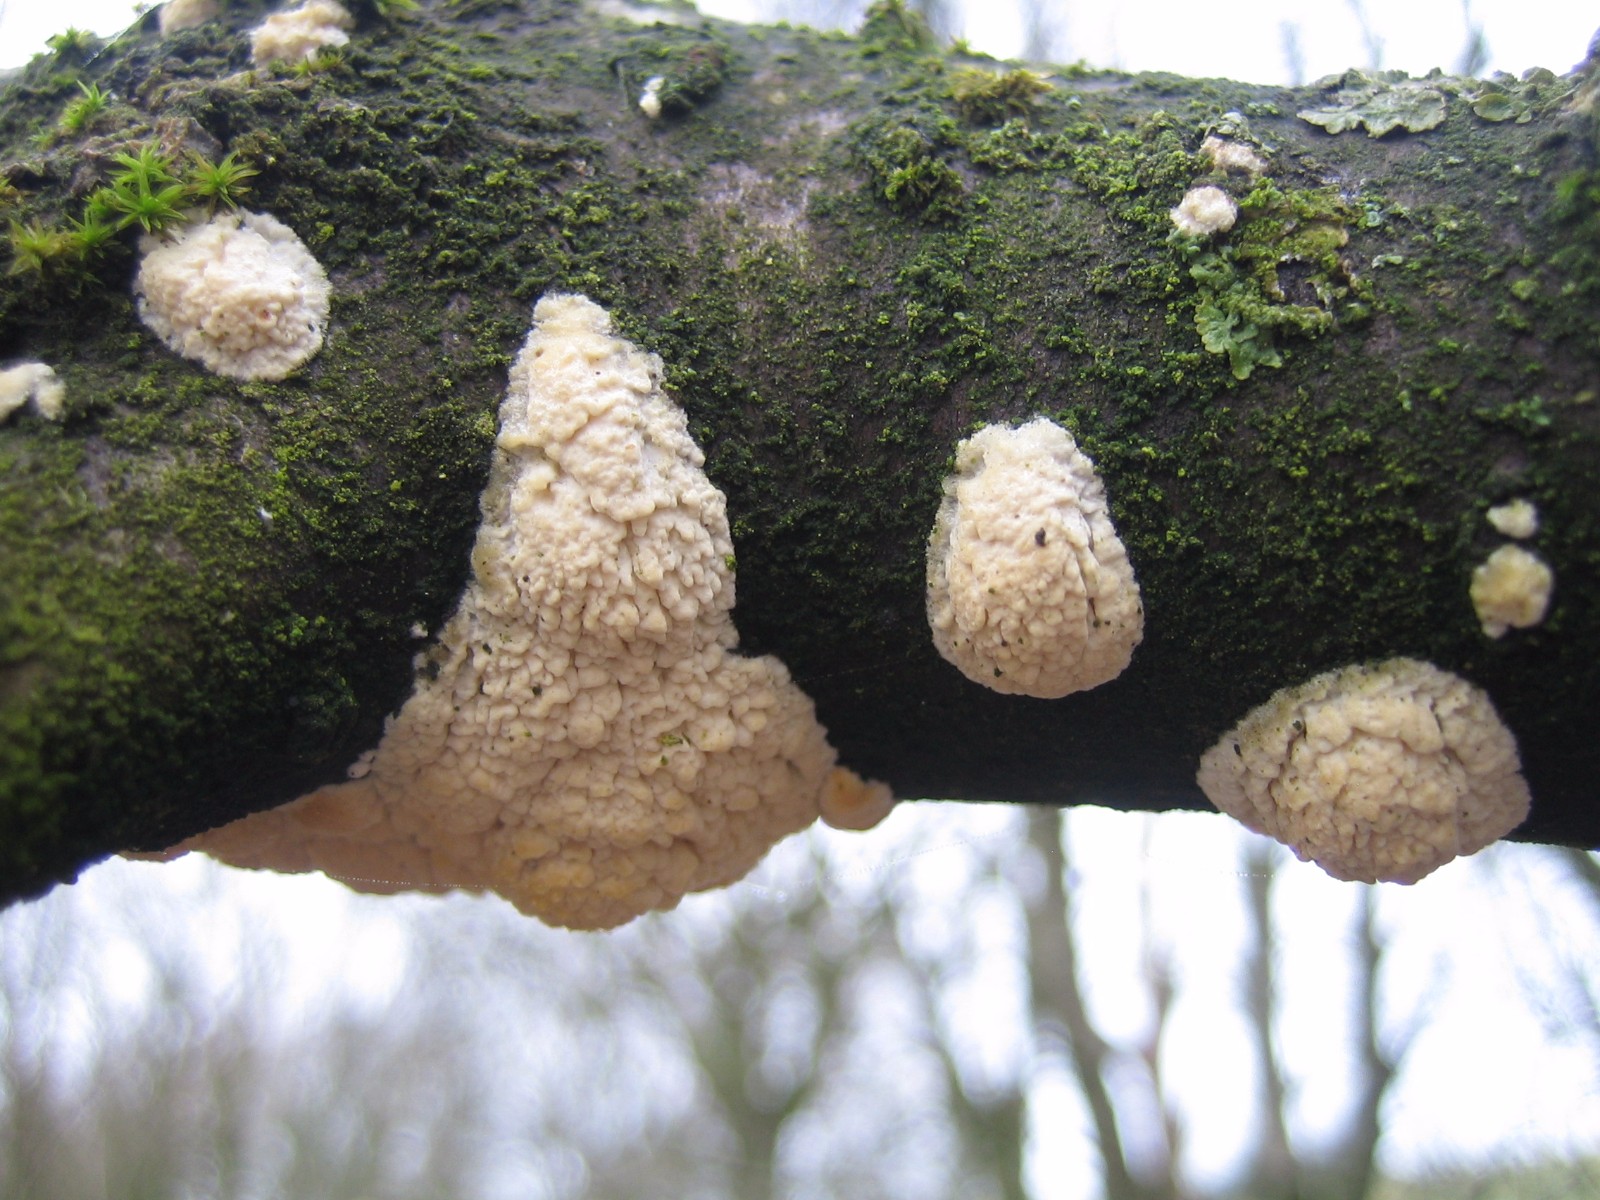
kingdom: Fungi
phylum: Basidiomycota
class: Agaricomycetes
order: Hymenochaetales
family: Schizoporaceae
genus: Xylodon
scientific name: Xylodon radula
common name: grovtandet kalkskind
